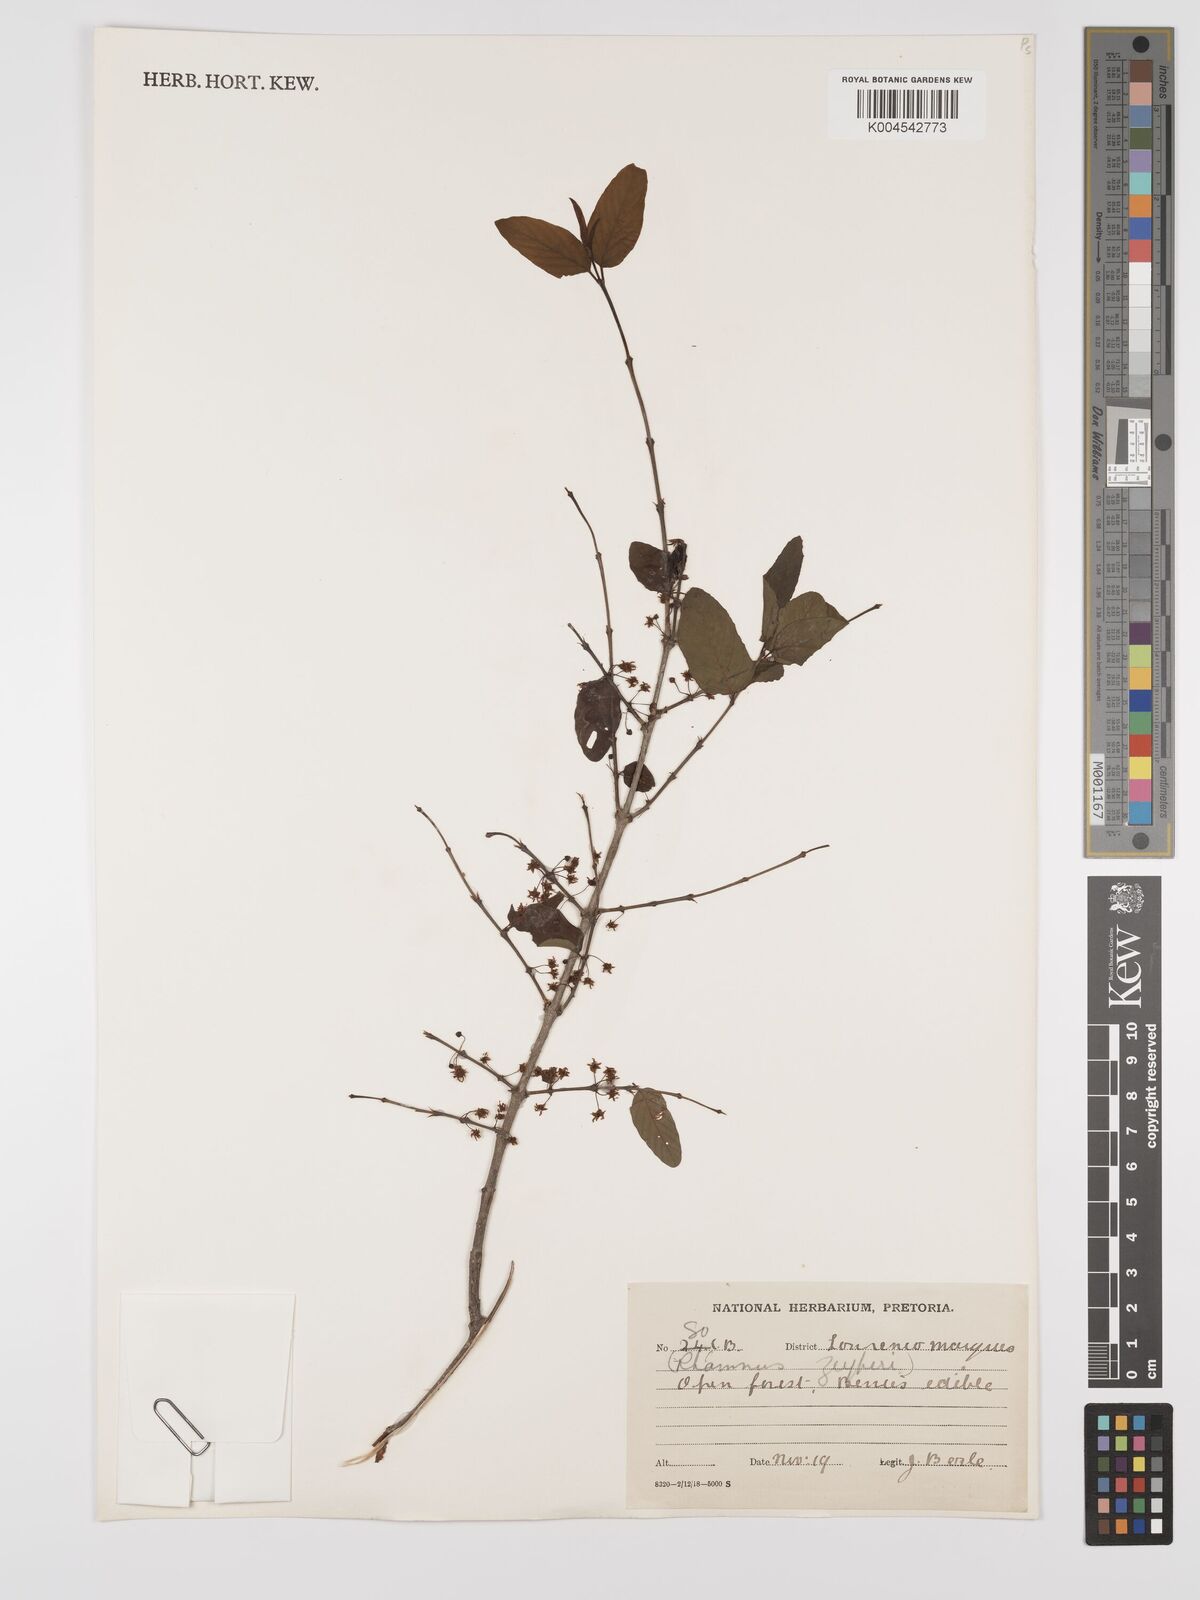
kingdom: Plantae
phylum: Tracheophyta
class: Magnoliopsida
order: Rosales
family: Rhamnaceae
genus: Phyllogeiton
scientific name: Phyllogeiton zeyheri
